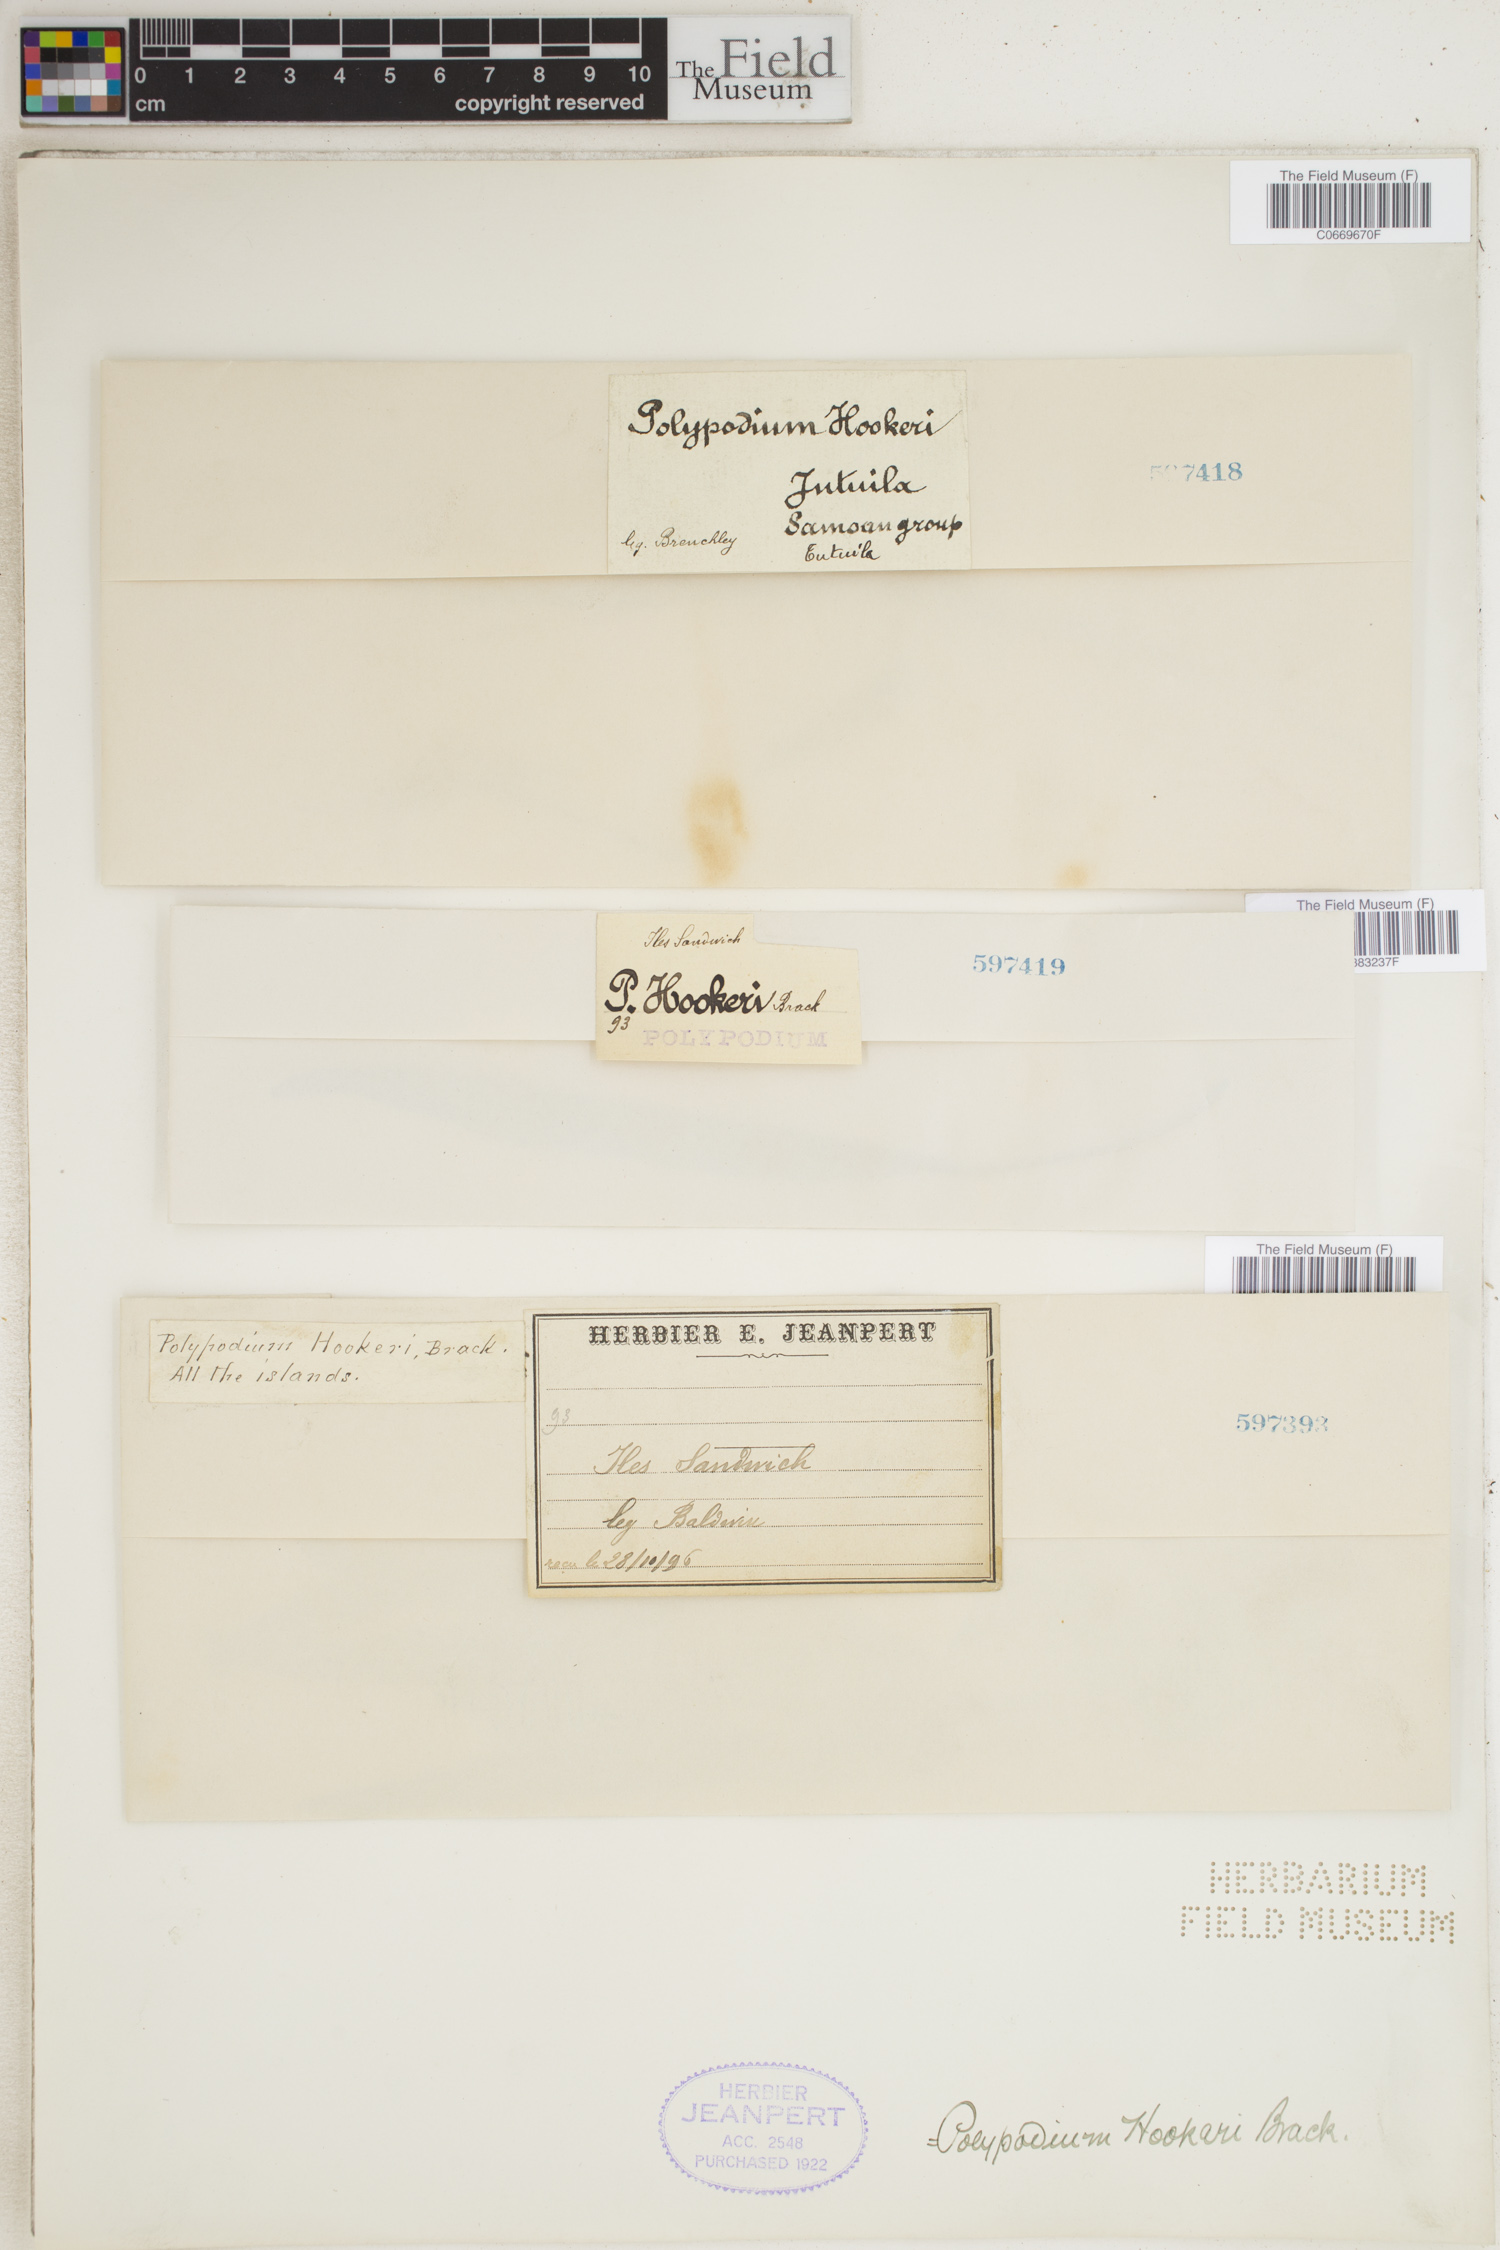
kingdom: Plantae
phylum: Tracheophyta
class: Polypodiopsida
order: Polypodiales
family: Polypodiaceae
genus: Oreogrammitis
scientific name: Oreogrammitis hookeri
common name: Hooker's dwarf polypody
